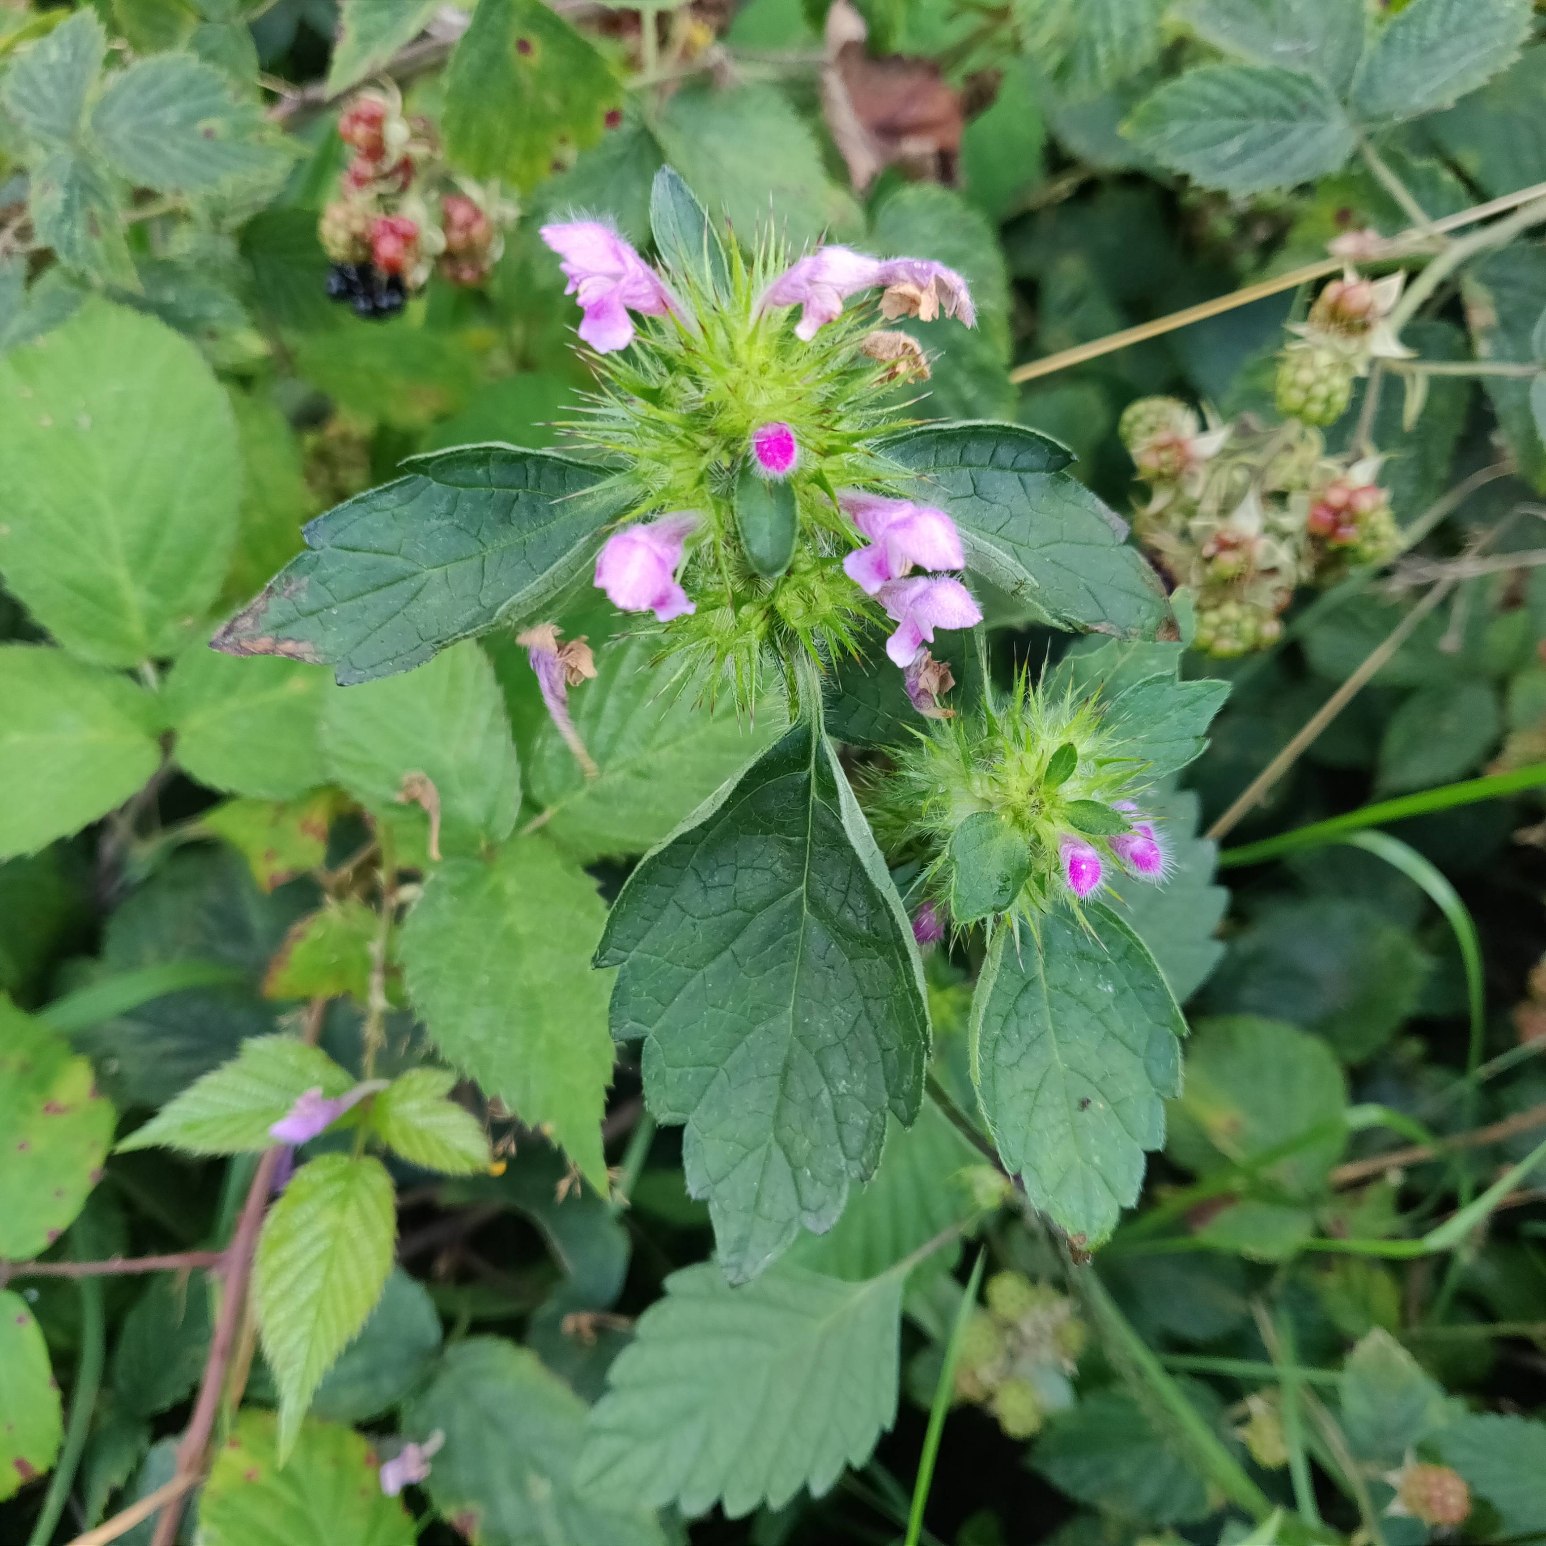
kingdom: Plantae
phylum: Tracheophyta
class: Magnoliopsida
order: Lamiales
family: Lamiaceae
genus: Galeopsis
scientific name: Galeopsis tetrahit
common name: Almindelig hanekro
